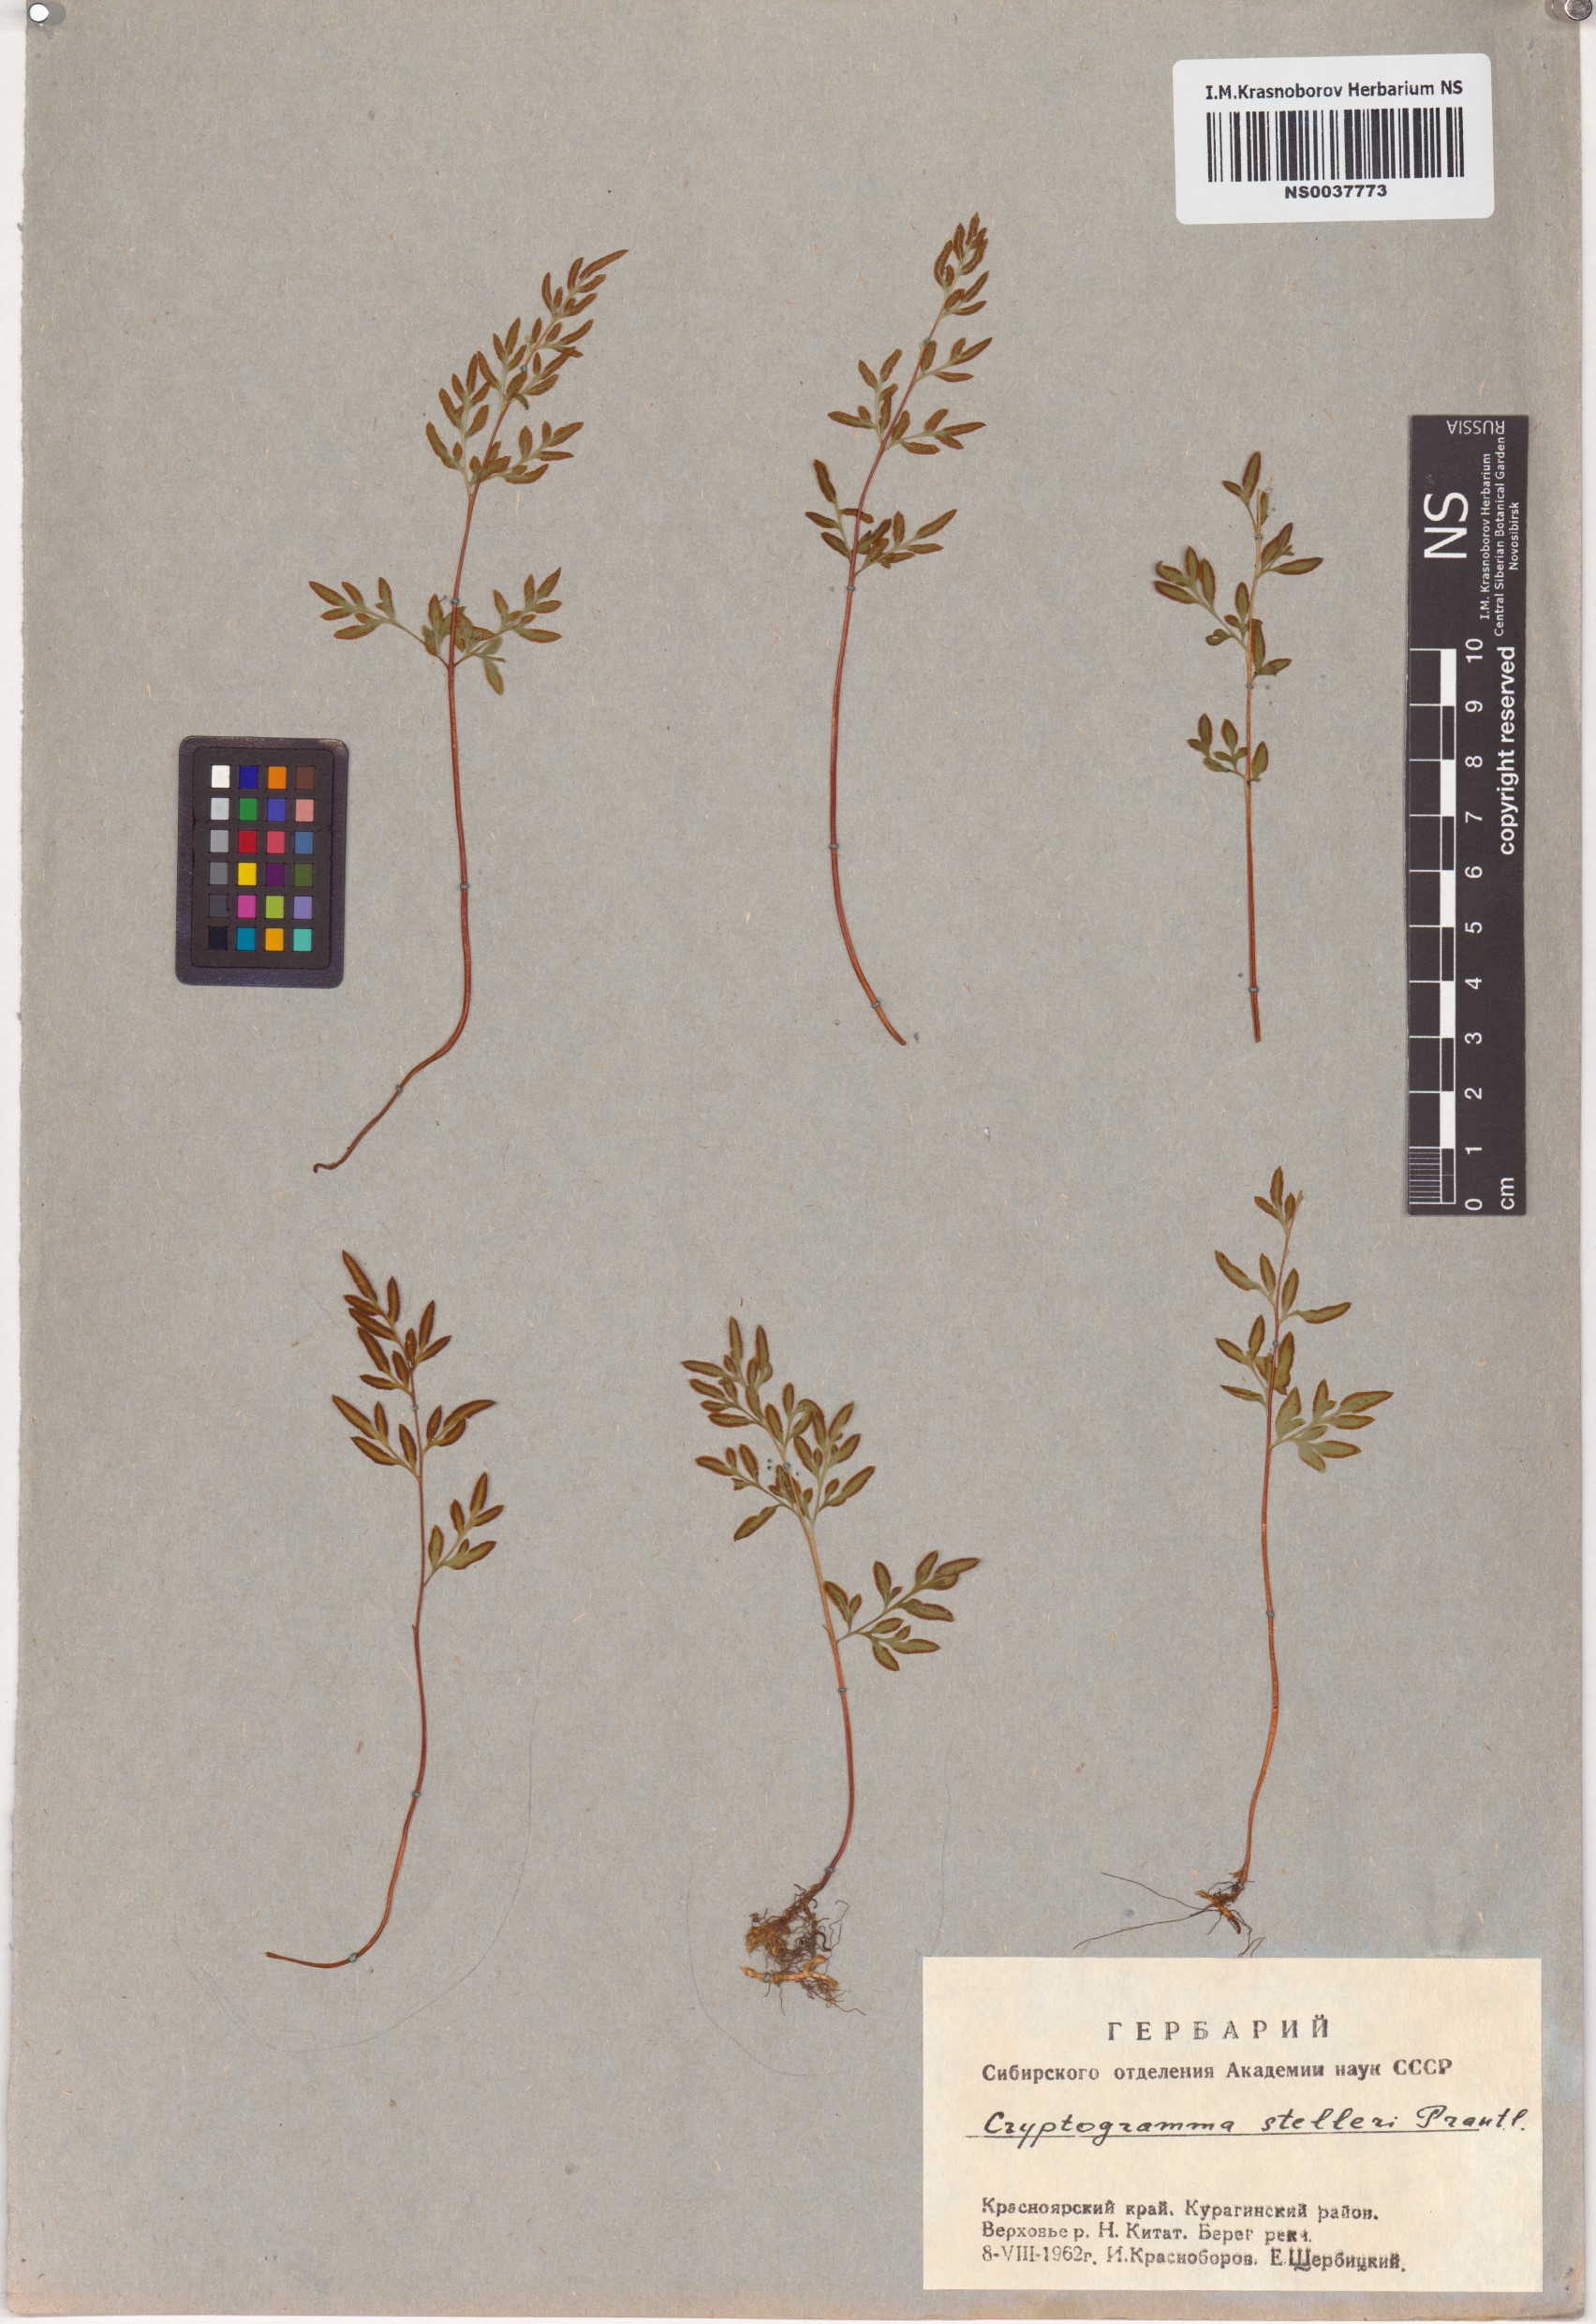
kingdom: Plantae
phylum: Tracheophyta
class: Polypodiopsida
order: Polypodiales
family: Pteridaceae
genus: Cryptogramma
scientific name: Cryptogramma stelleri
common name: Cliff-brake
